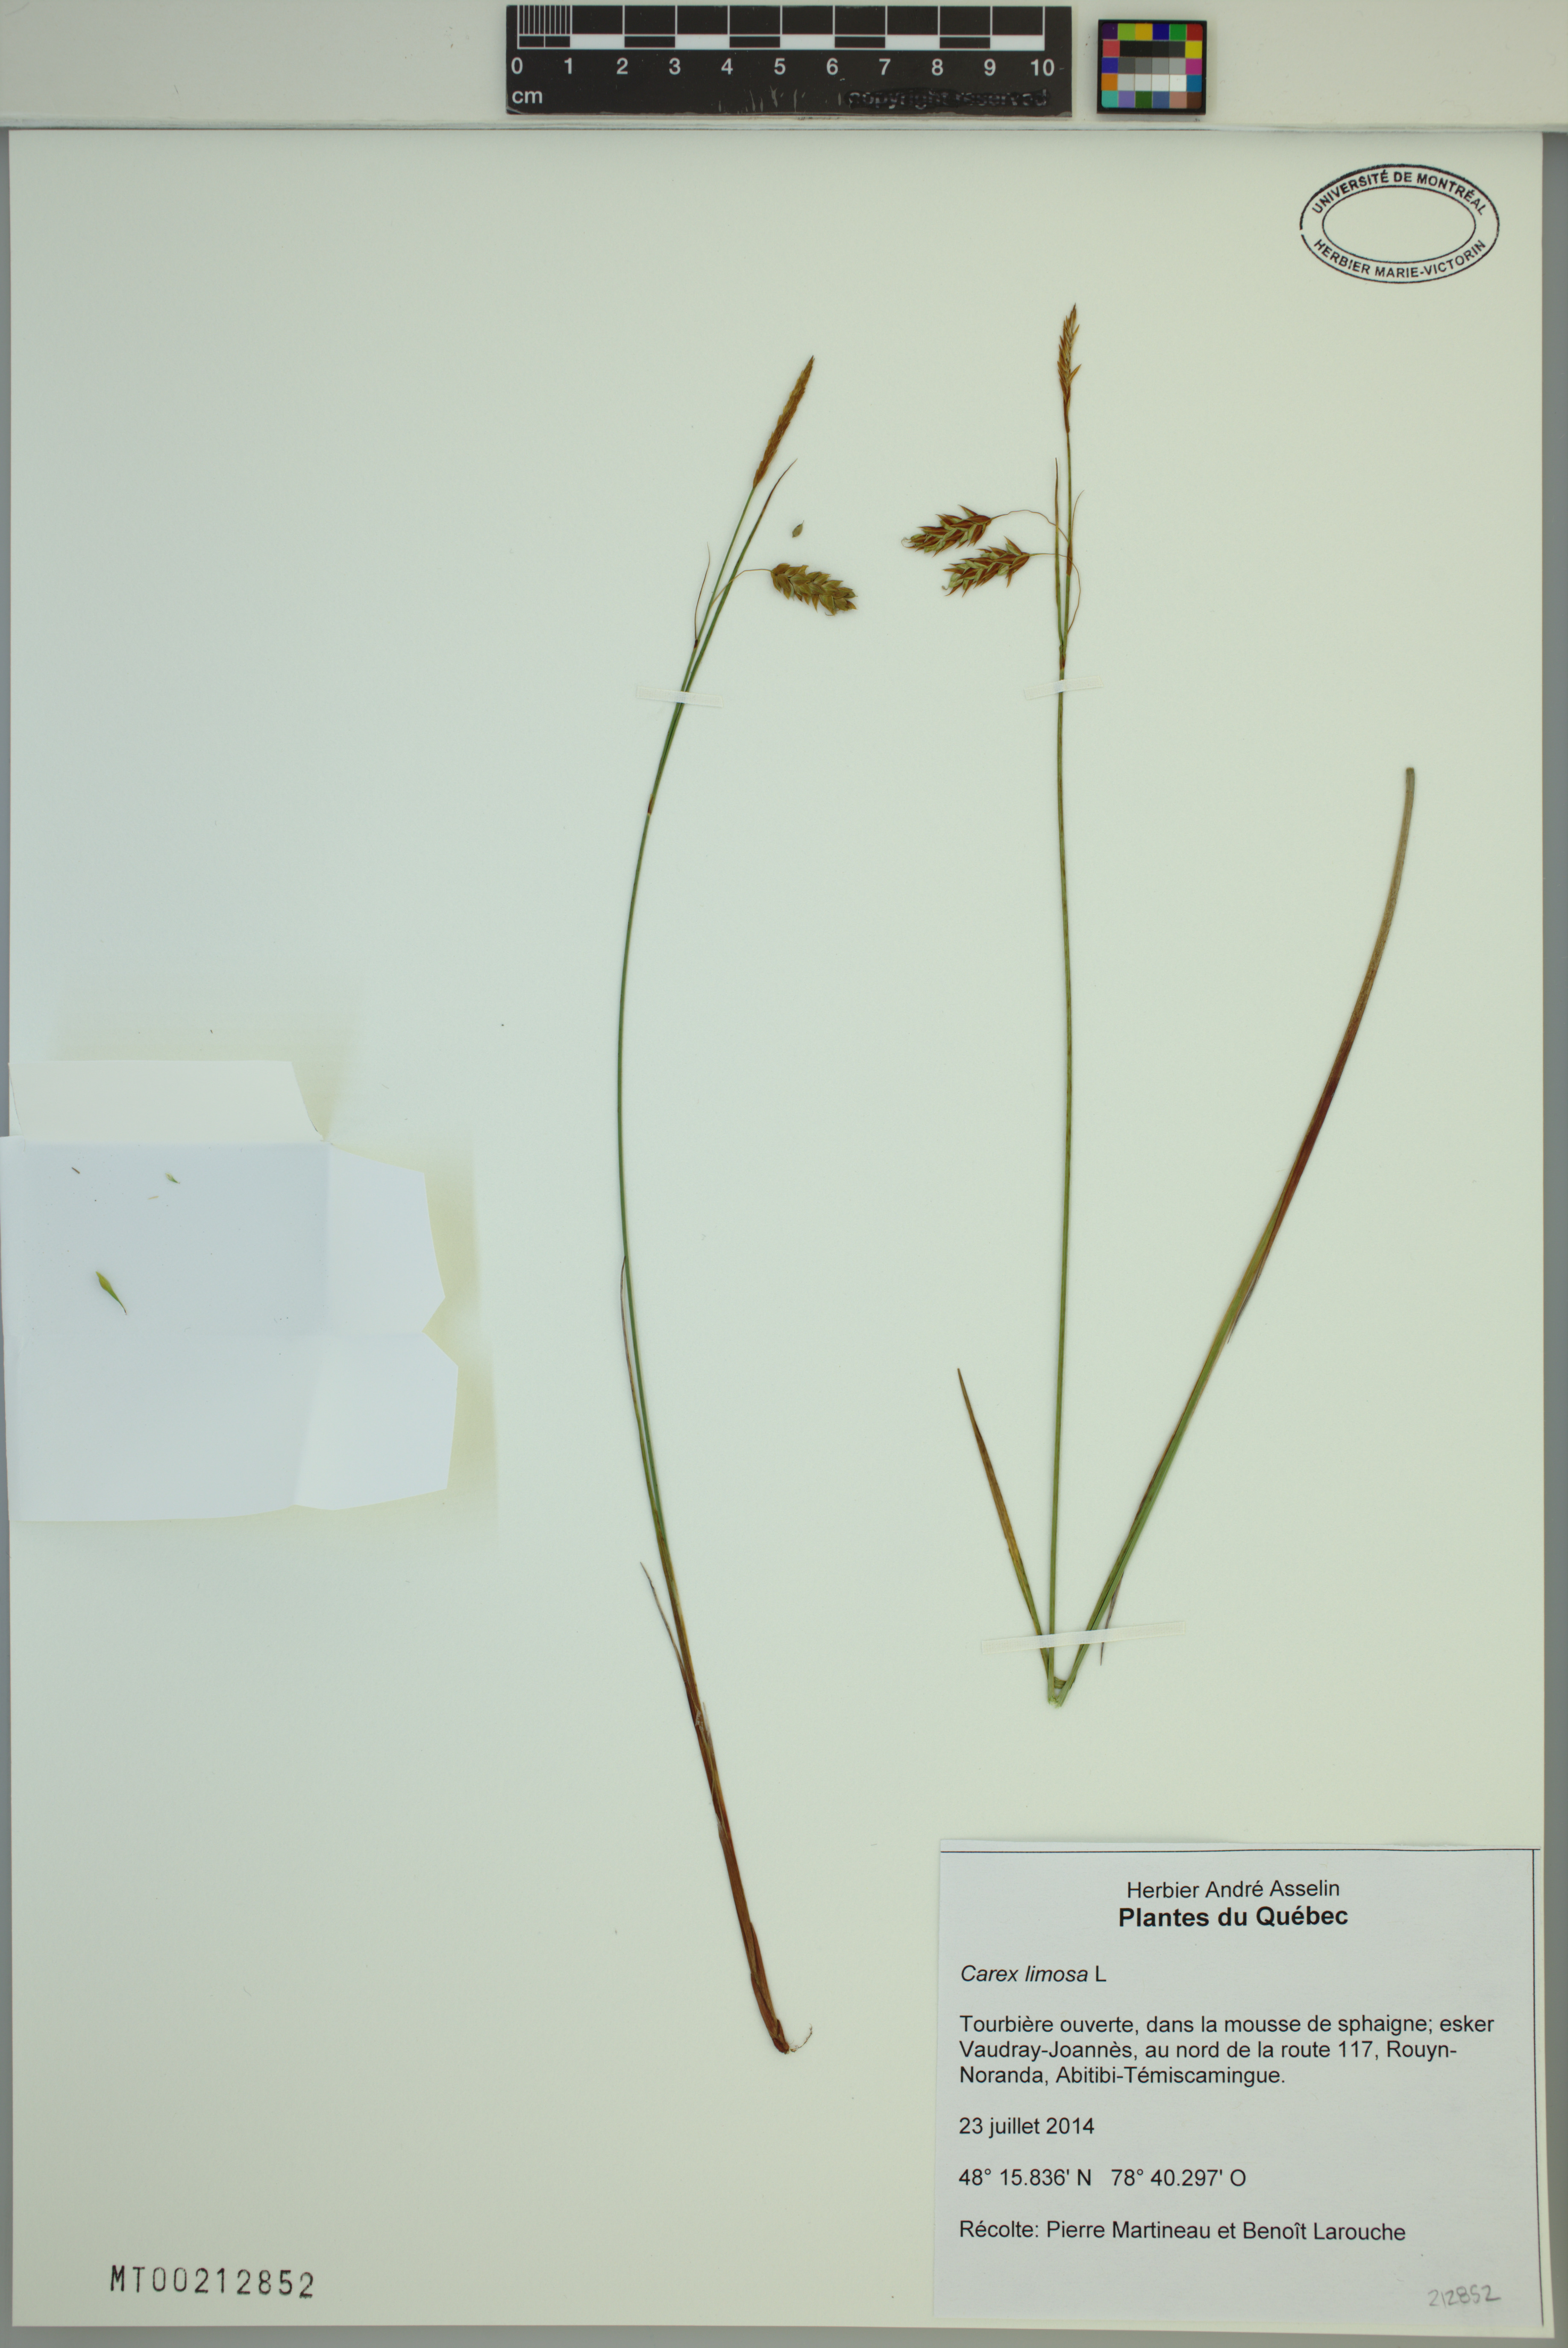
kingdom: Plantae
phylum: Tracheophyta
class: Liliopsida
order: Poales
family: Cyperaceae
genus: Carex
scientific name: Carex limosa
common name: Bog sedge
